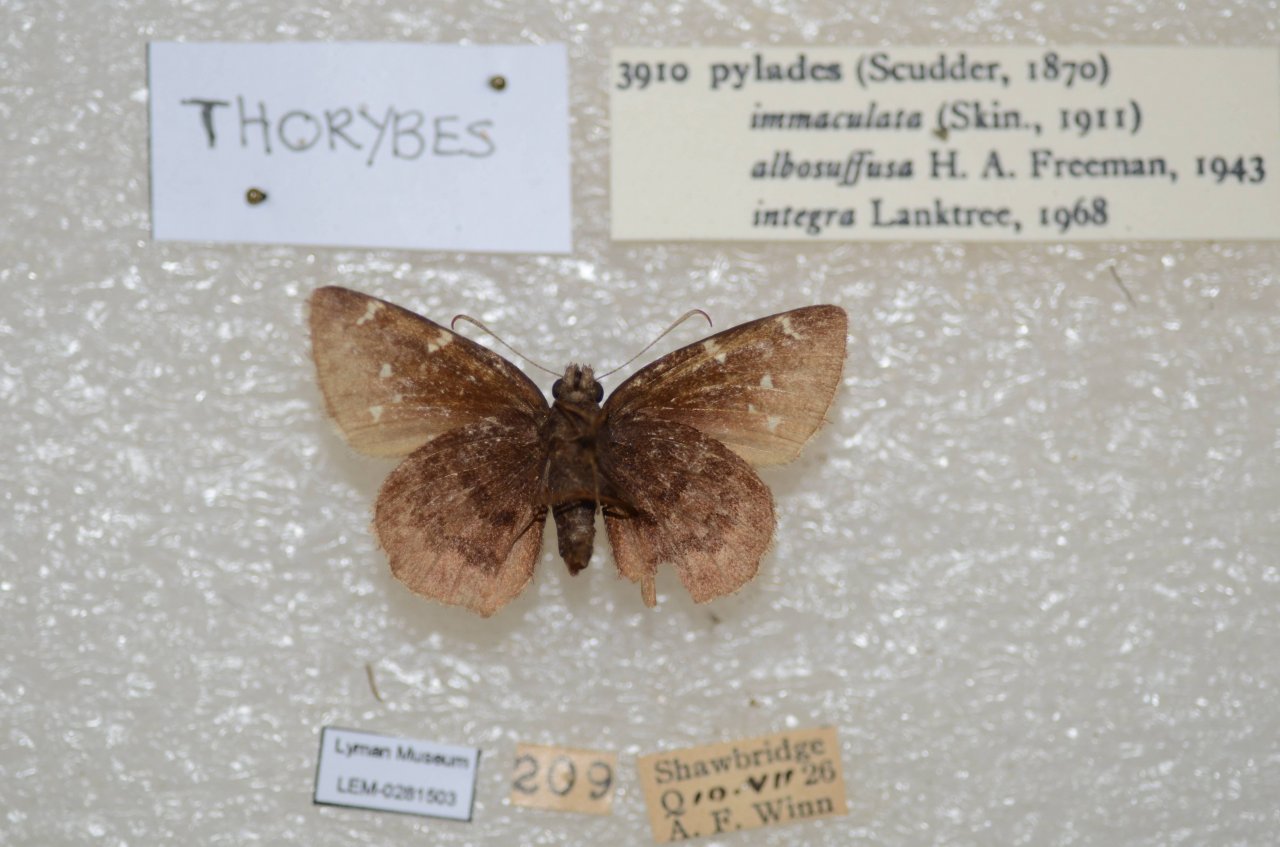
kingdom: Animalia
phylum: Arthropoda
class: Insecta
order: Lepidoptera
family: Hesperiidae
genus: Autochton
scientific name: Autochton
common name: Northern Cloudywing
